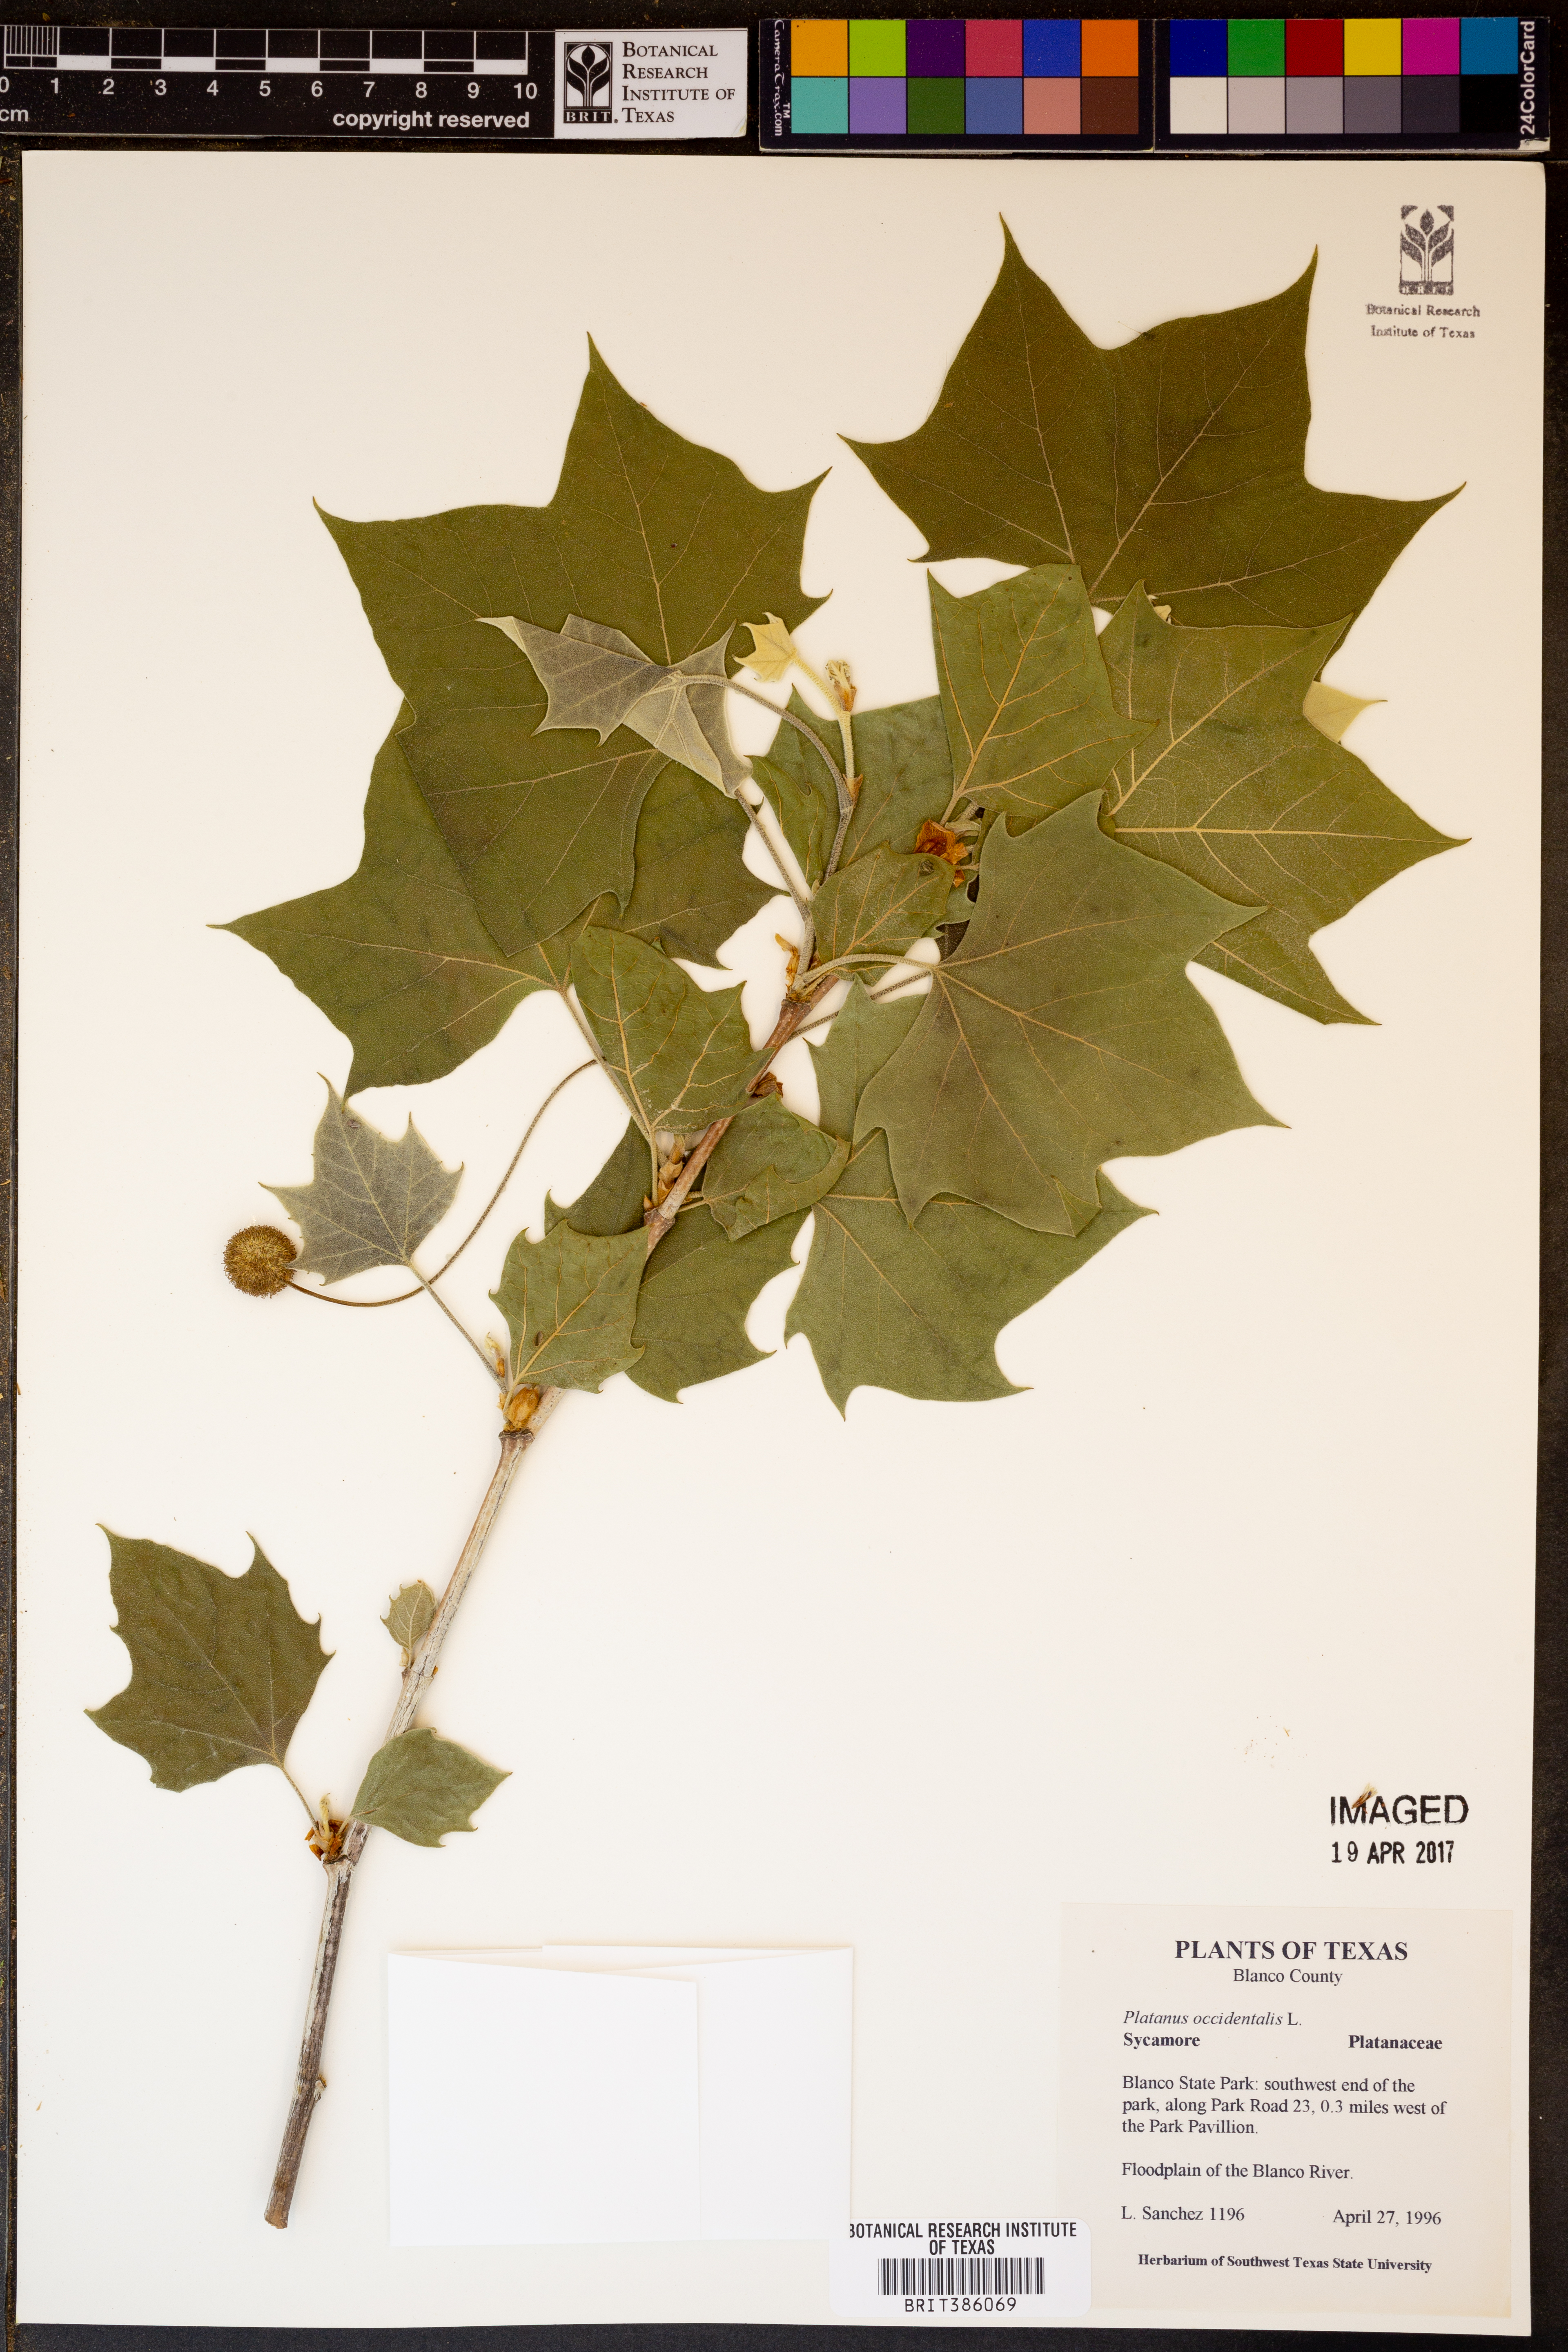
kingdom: Plantae
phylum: Tracheophyta
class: Magnoliopsida
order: Proteales
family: Platanaceae
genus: Platanus
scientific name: Platanus occidentalis
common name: American sycamore
